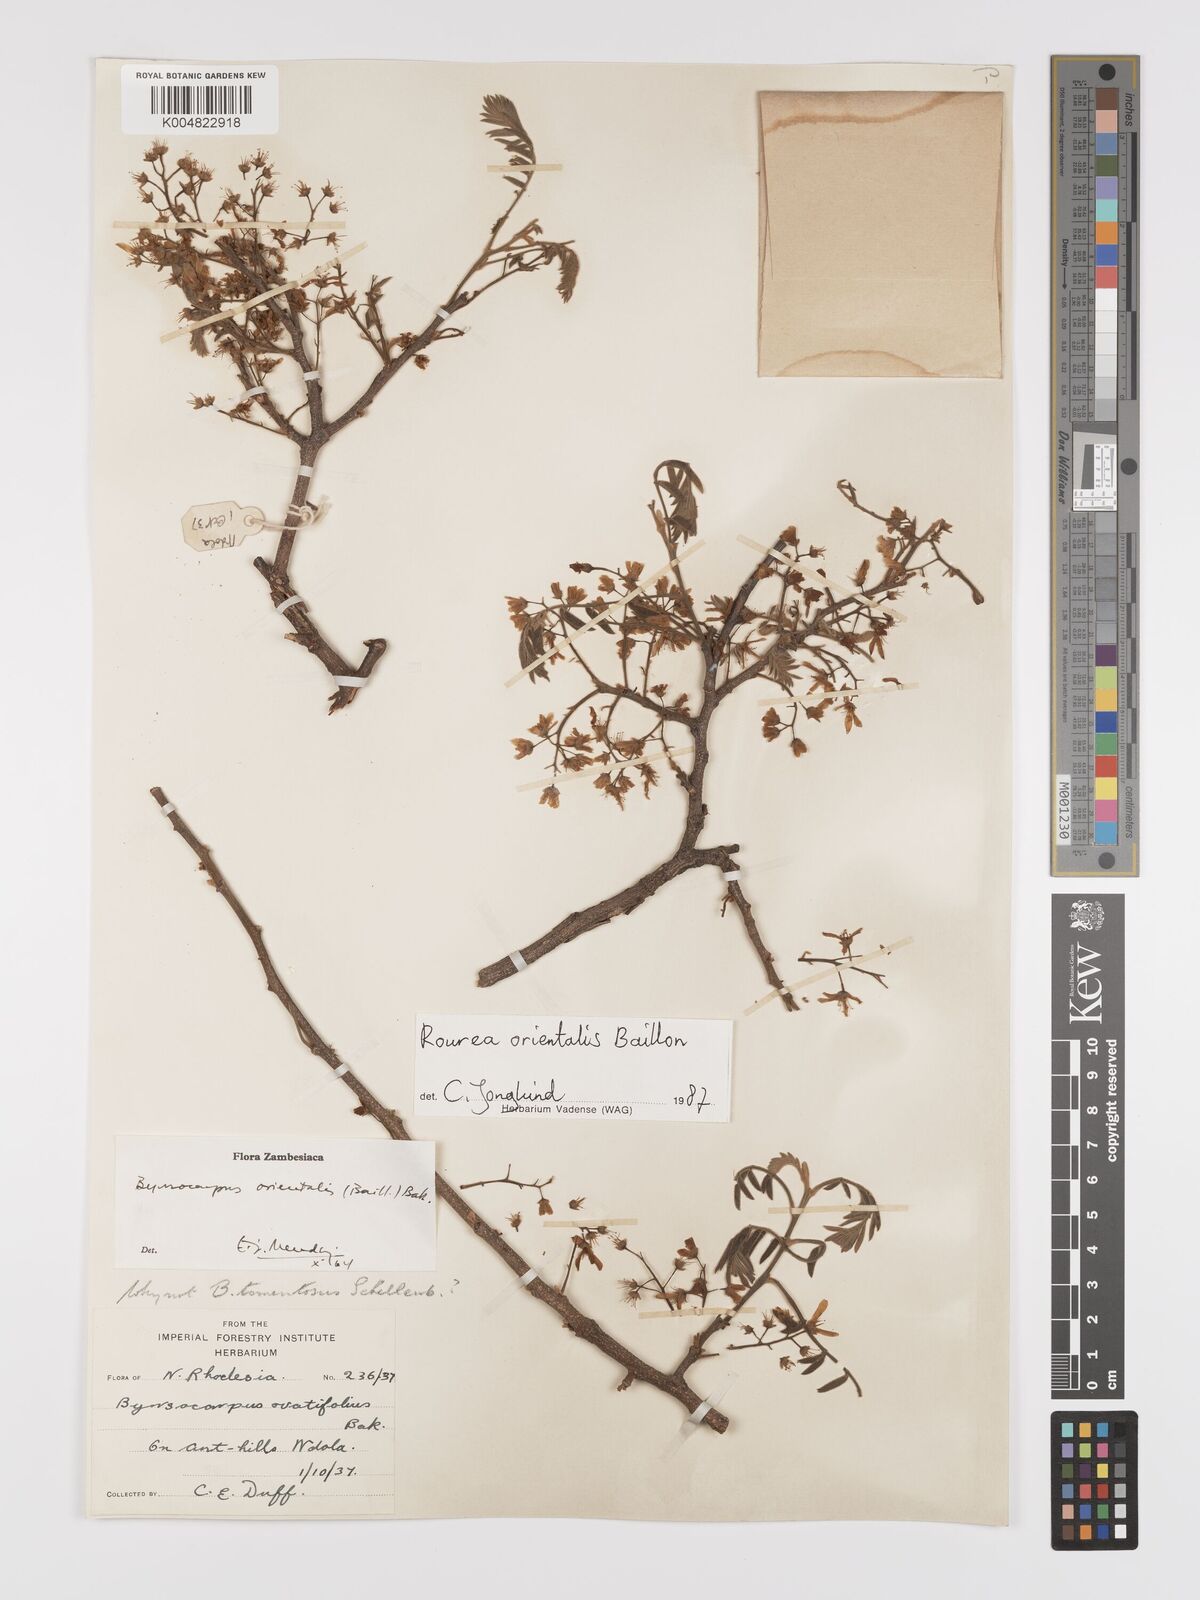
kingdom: Plantae
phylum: Tracheophyta
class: Magnoliopsida
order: Oxalidales
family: Connaraceae
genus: Rourea
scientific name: Rourea orientalis
